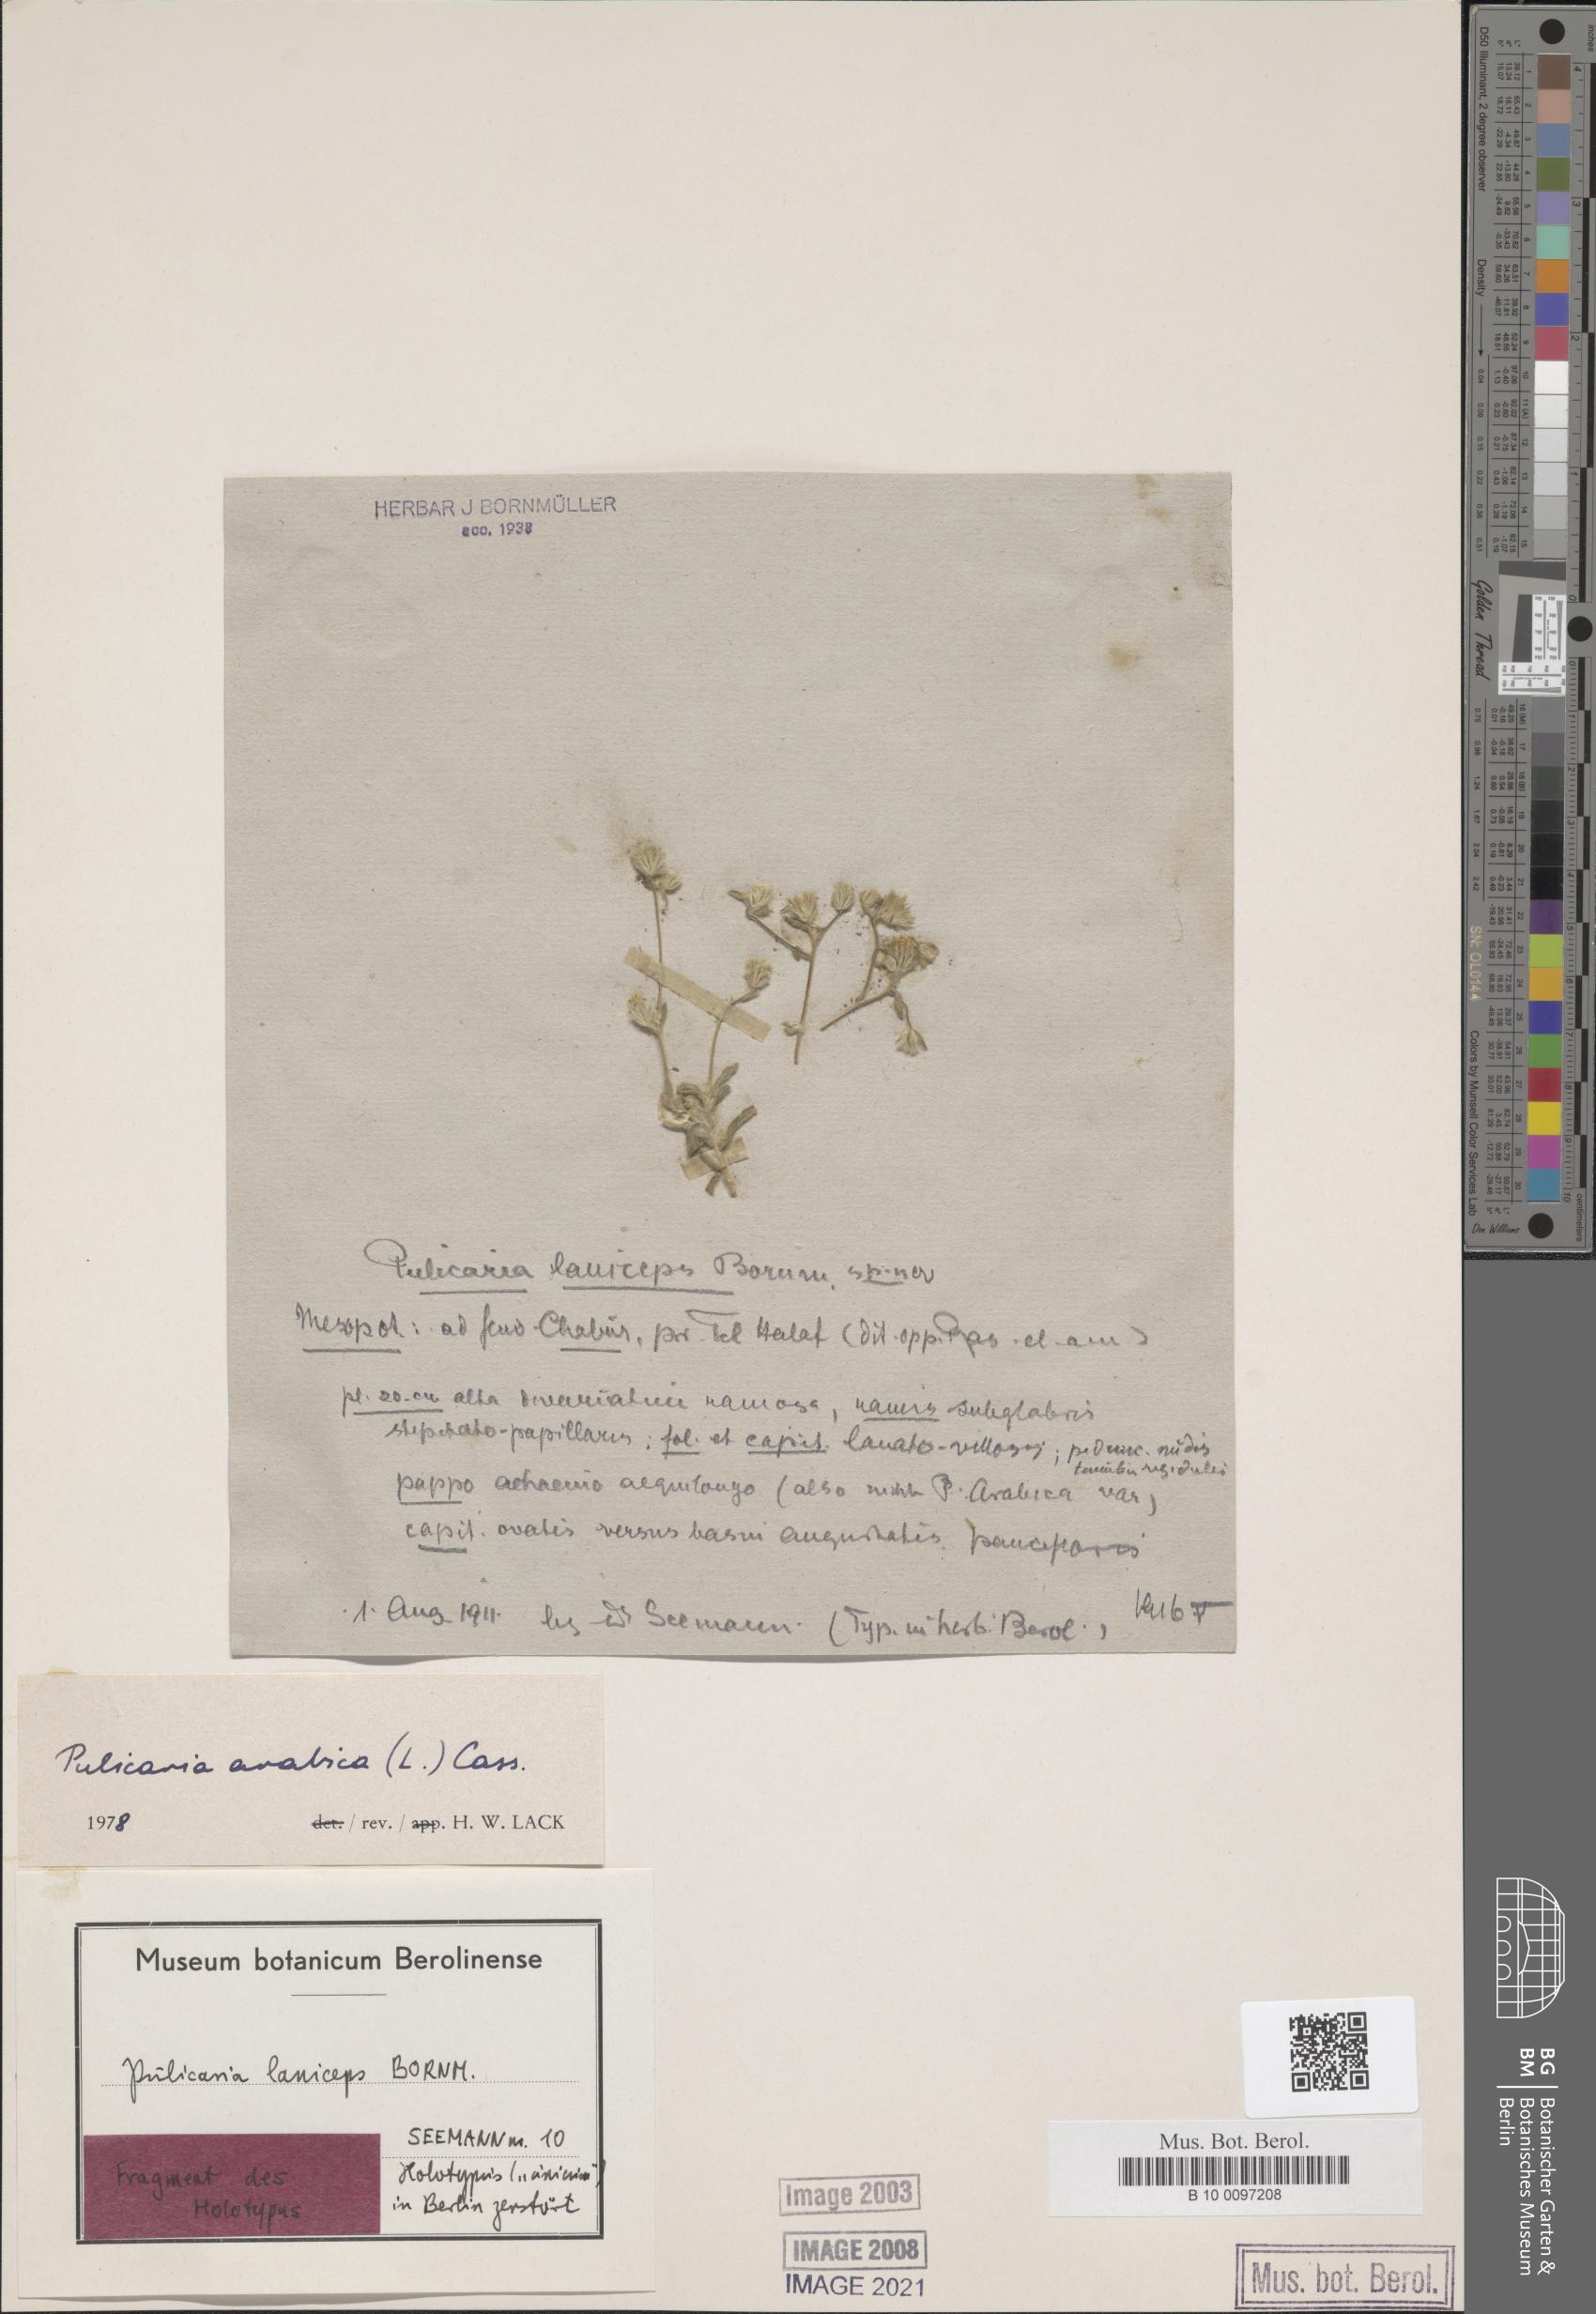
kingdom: Plantae
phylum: Tracheophyta
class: Magnoliopsida
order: Asterales
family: Asteraceae
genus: Pulicaria
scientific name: Pulicaria arabica
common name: Ladies' false fleabane
